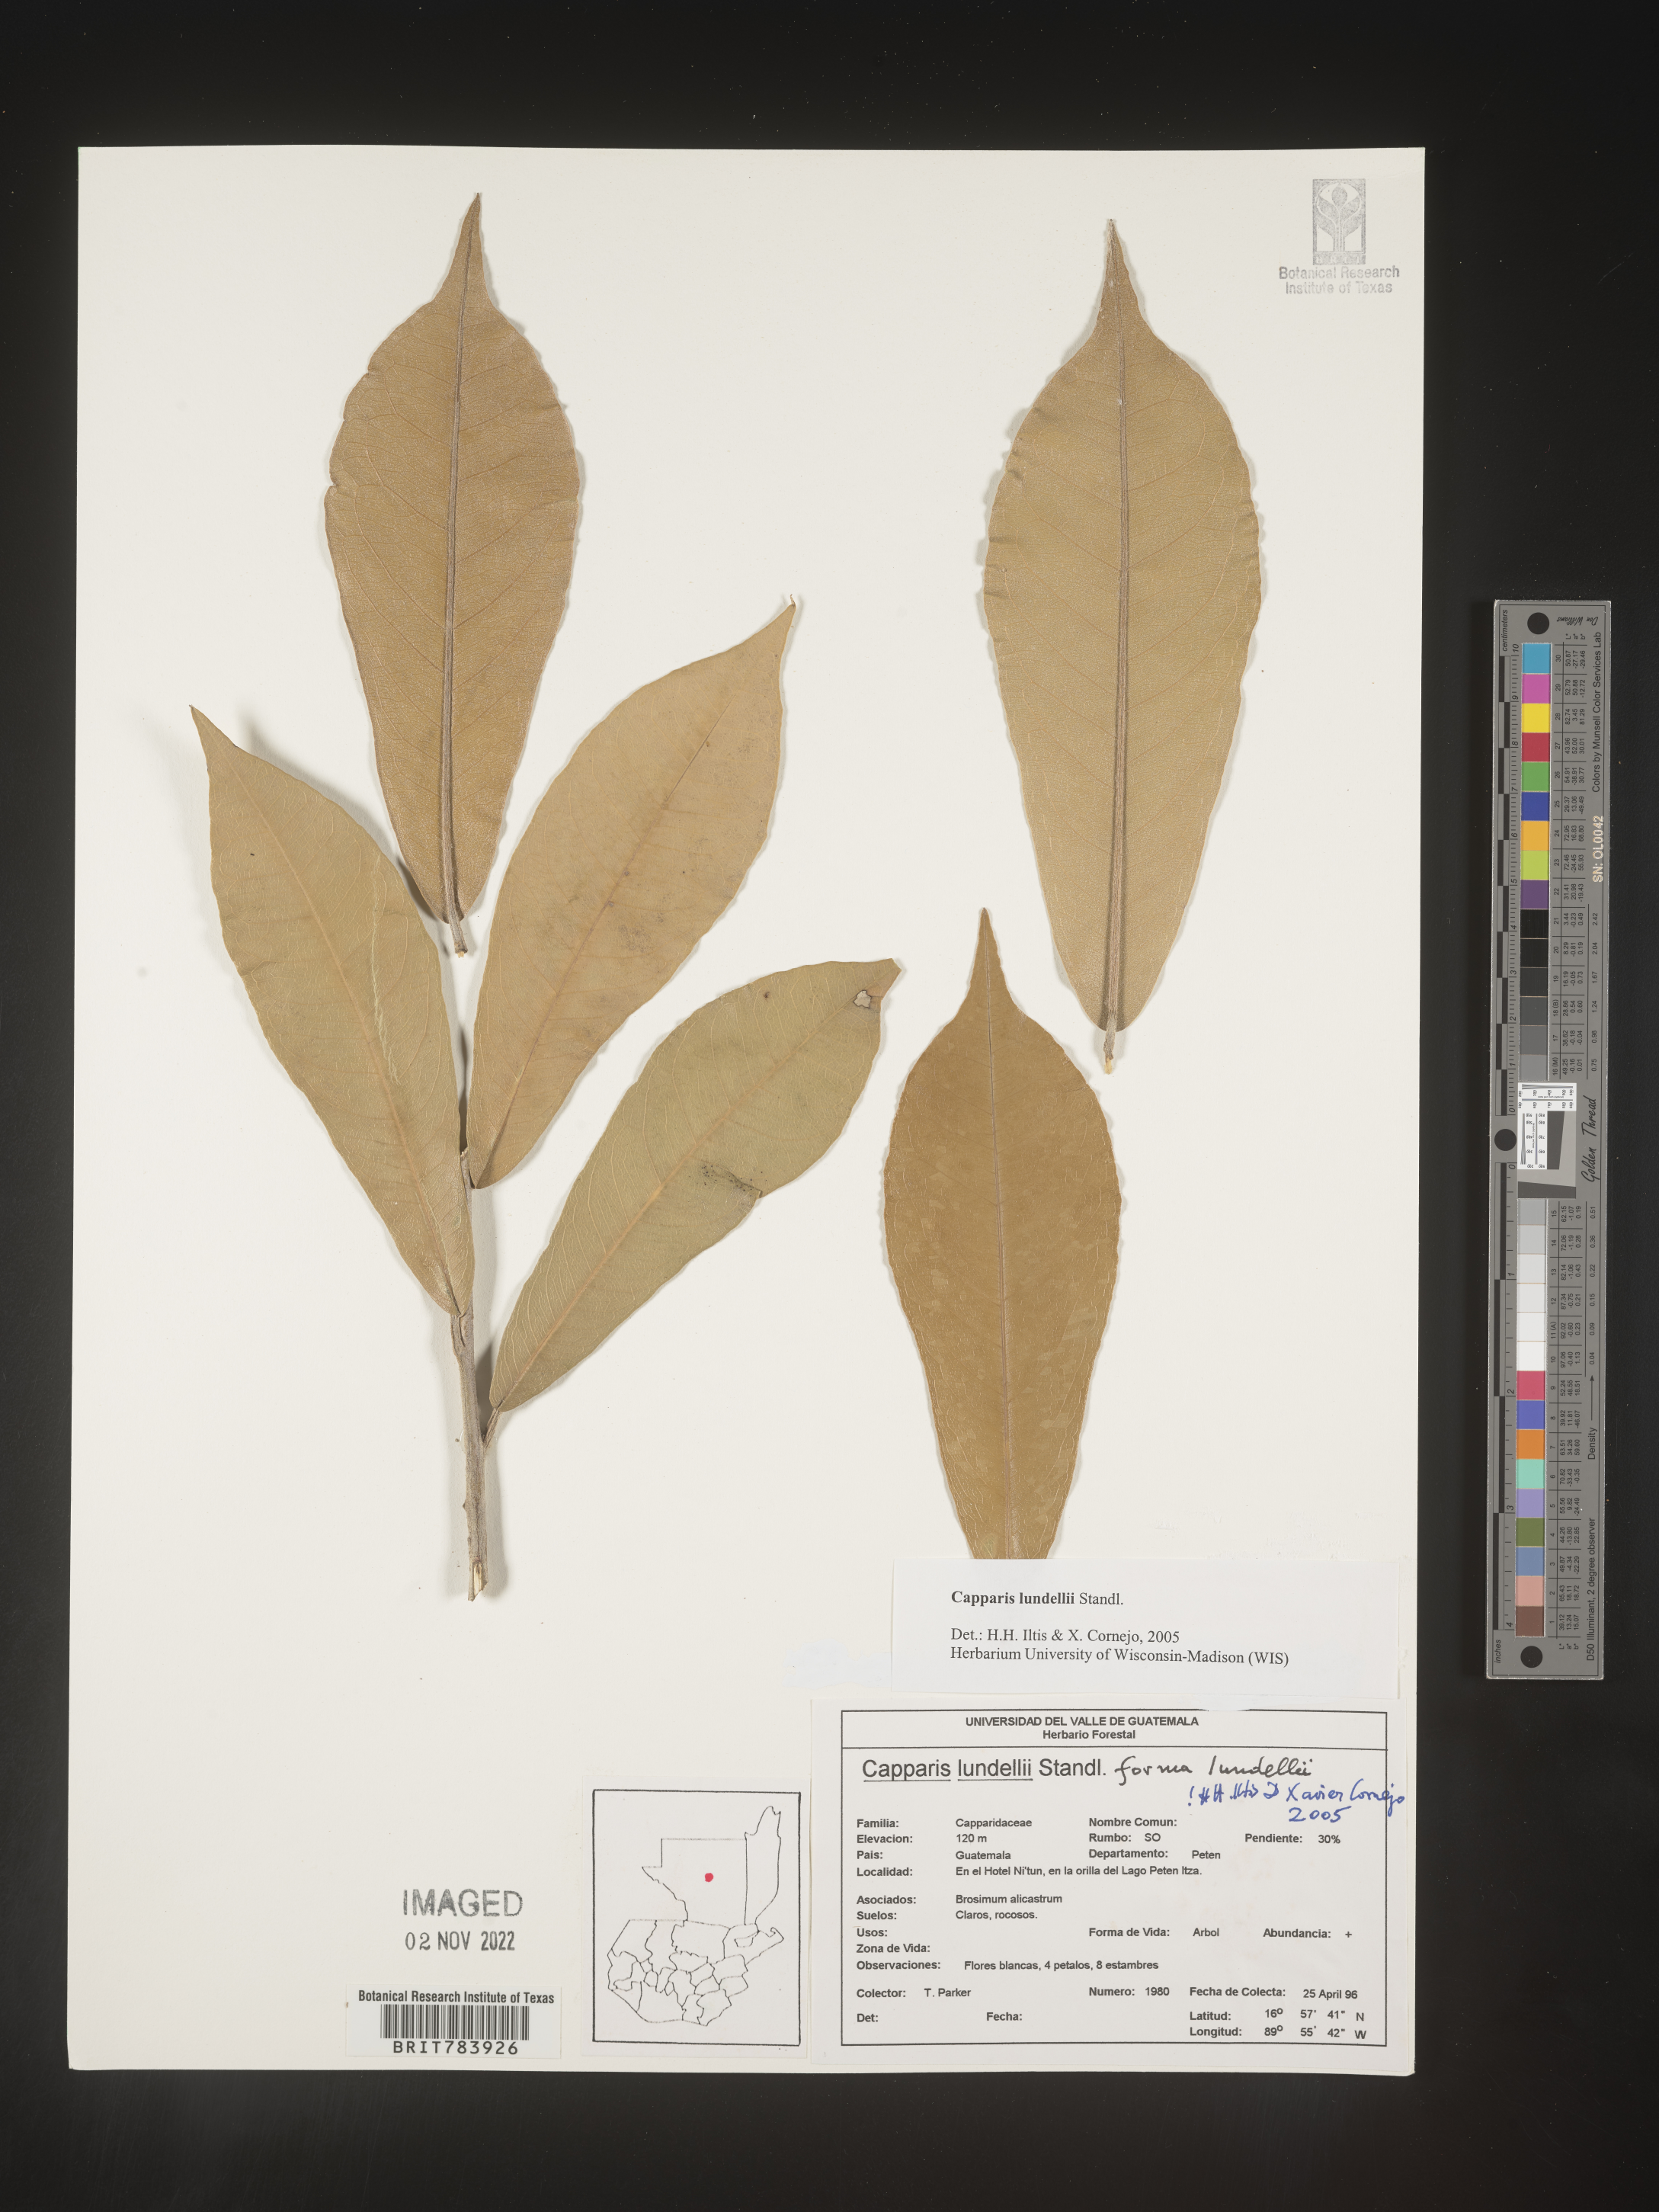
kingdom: Plantae
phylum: Tracheophyta
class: Magnoliopsida
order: Brassicales
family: Capparaceae
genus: Capparis
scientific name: Capparis
